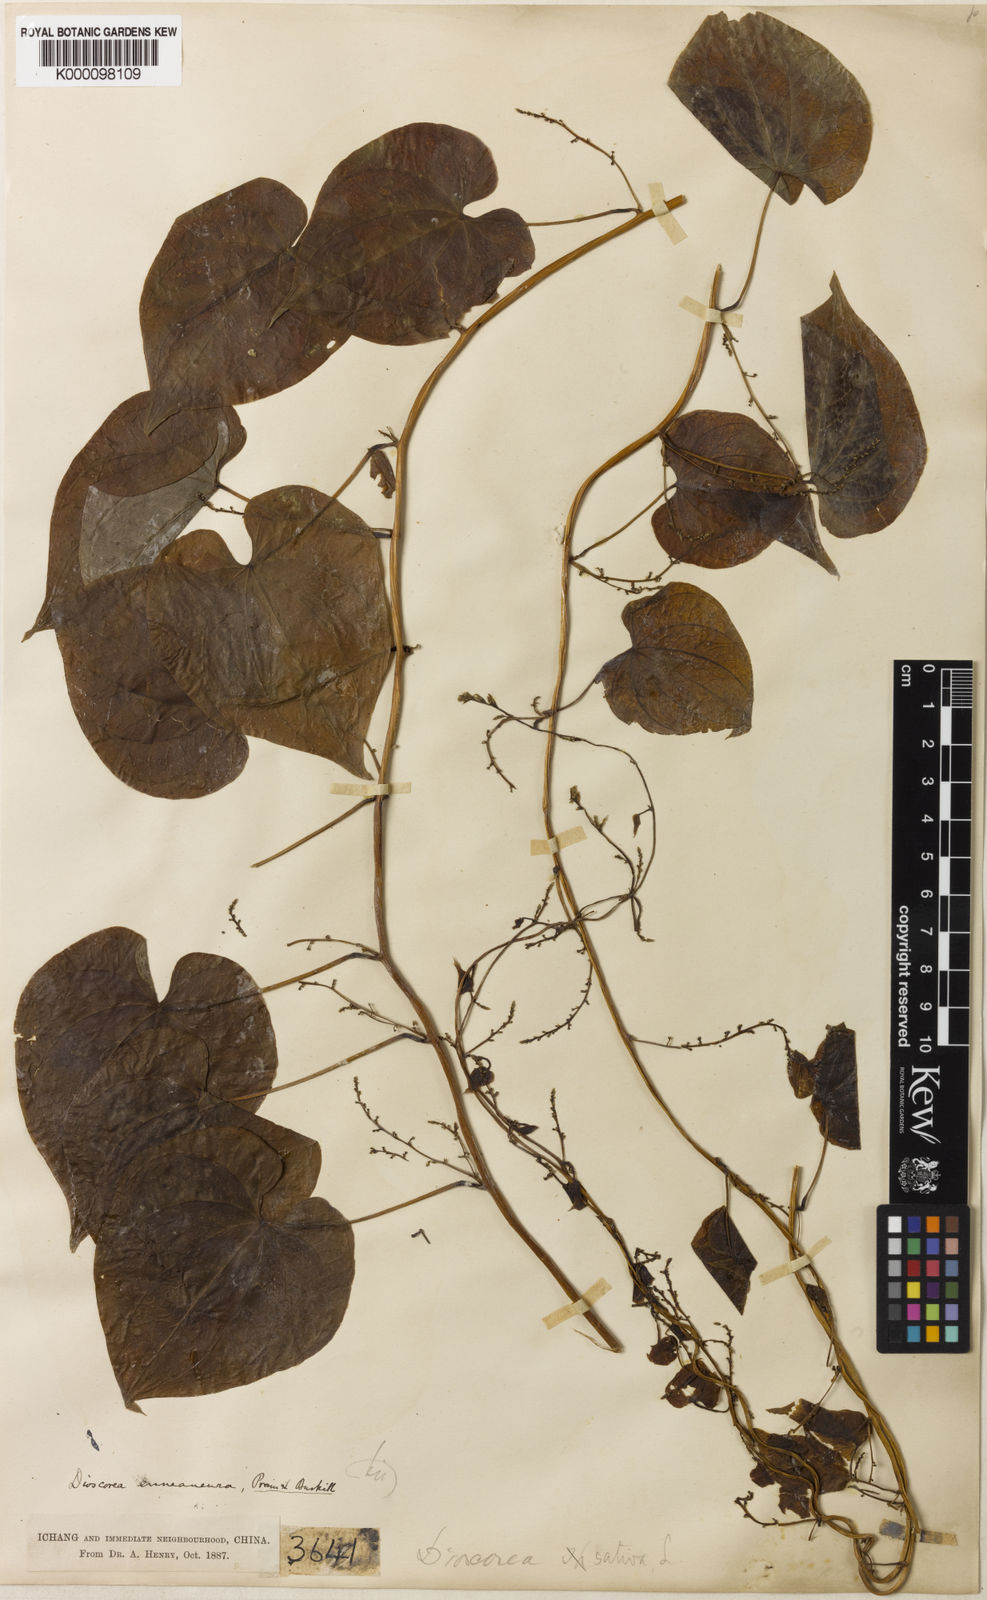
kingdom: Plantae
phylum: Tracheophyta
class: Liliopsida
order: Dioscoreales
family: Dioscoreaceae
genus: Dioscorea
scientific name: Dioscorea tokoro
